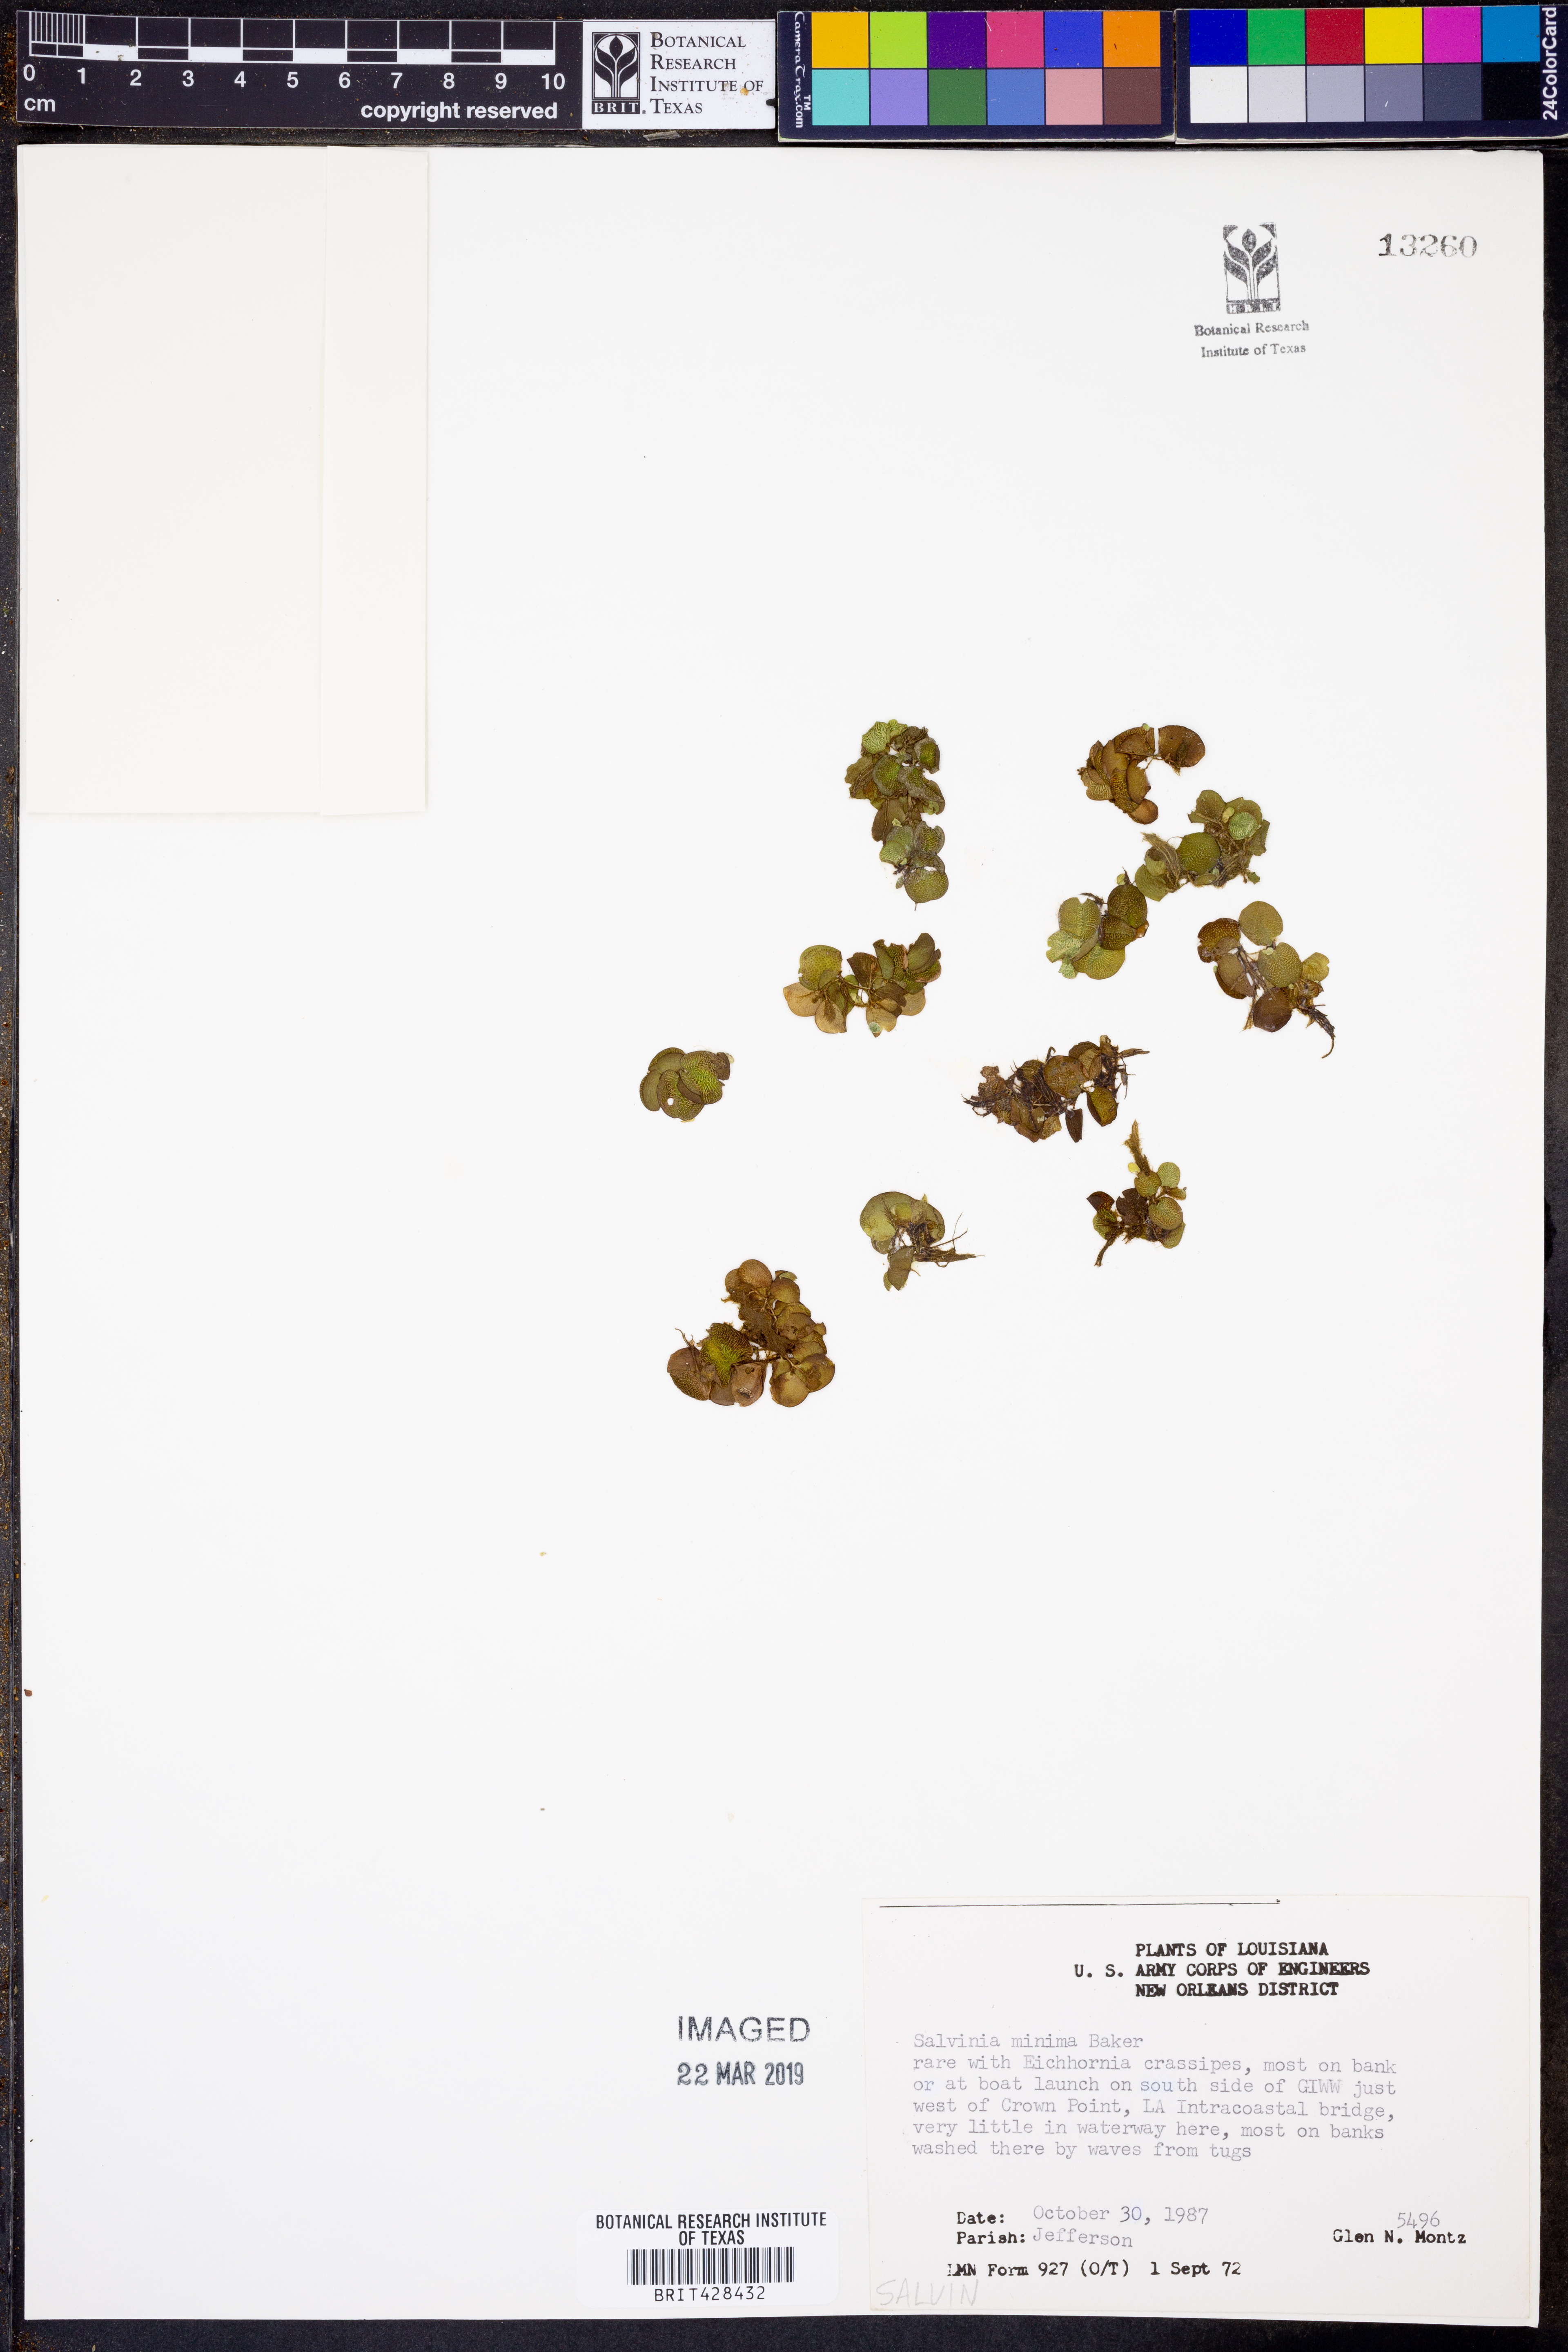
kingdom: Plantae
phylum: Tracheophyta
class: Polypodiopsida
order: Salviniales
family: Salviniaceae
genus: Salvinia
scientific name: Salvinia minima
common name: Water spangles
